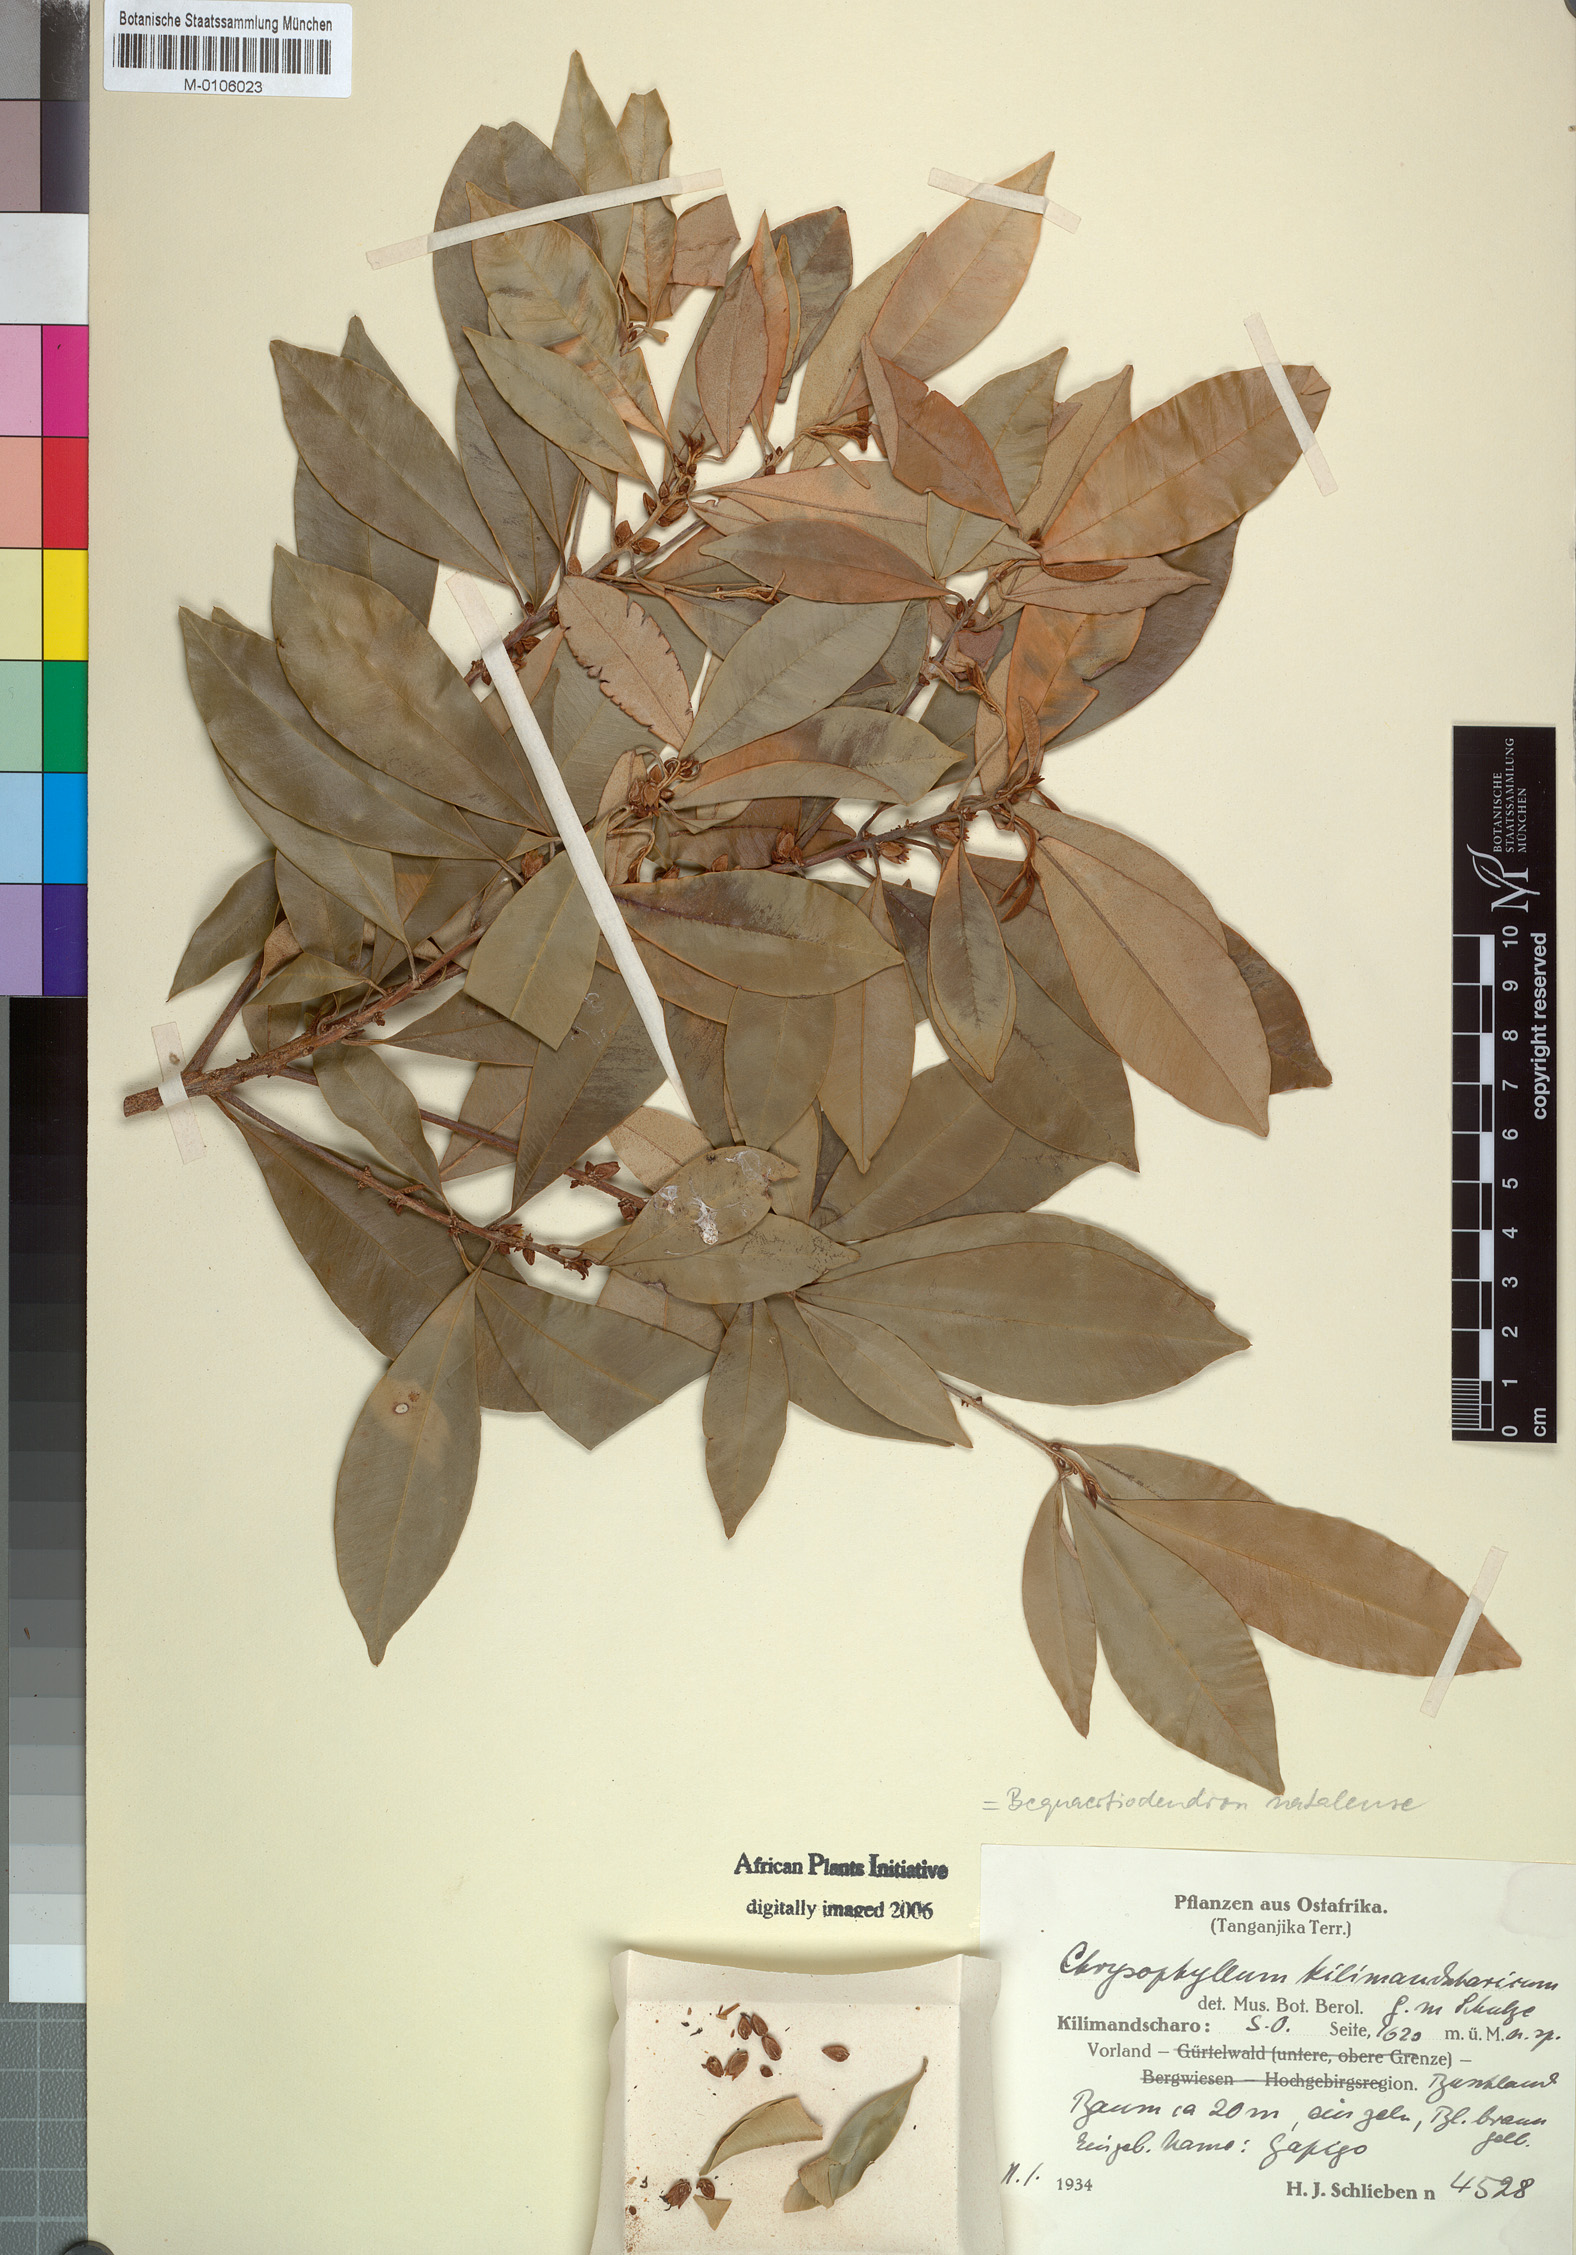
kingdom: Plantae
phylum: Tracheophyta
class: Magnoliopsida
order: Ericales
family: Sapotaceae
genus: Englerophytum
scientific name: Englerophytum natalense
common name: Silver-leaved milkplum
